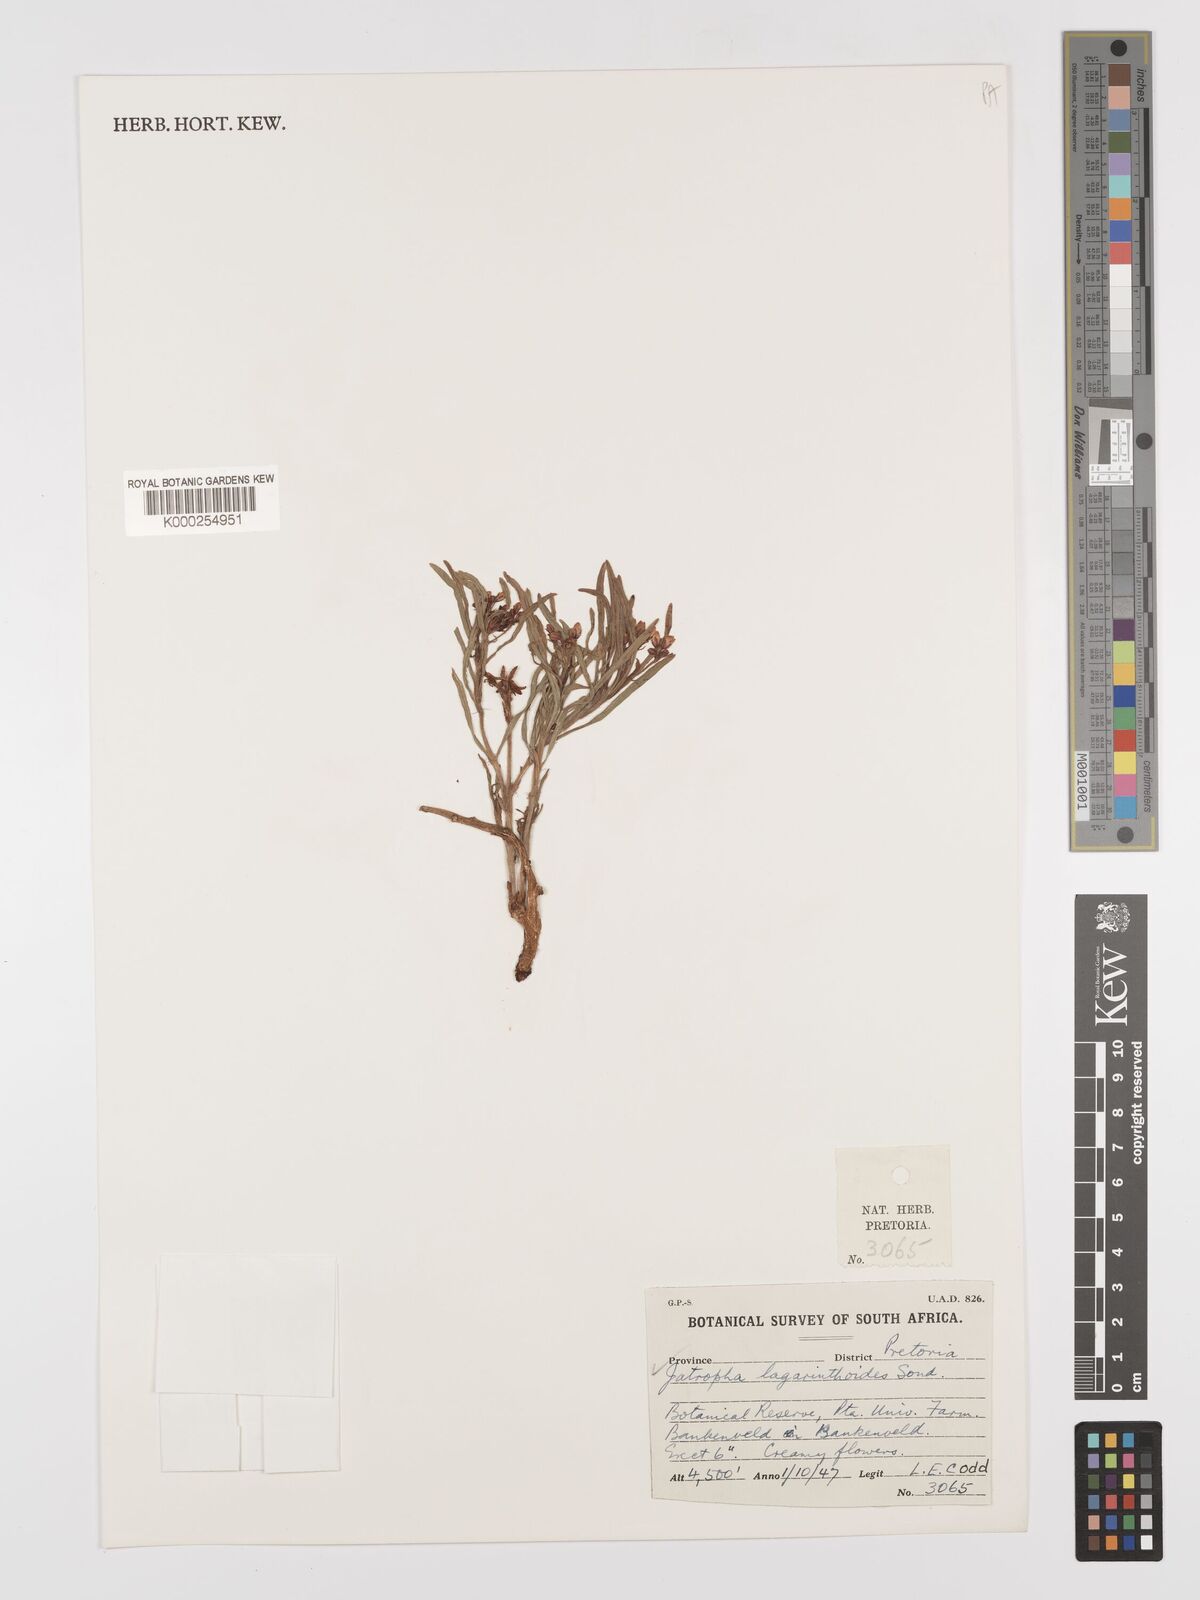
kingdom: Plantae
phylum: Tracheophyta
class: Magnoliopsida
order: Malpighiales
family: Euphorbiaceae
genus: Jatropha
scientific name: Jatropha lagarinthoides
